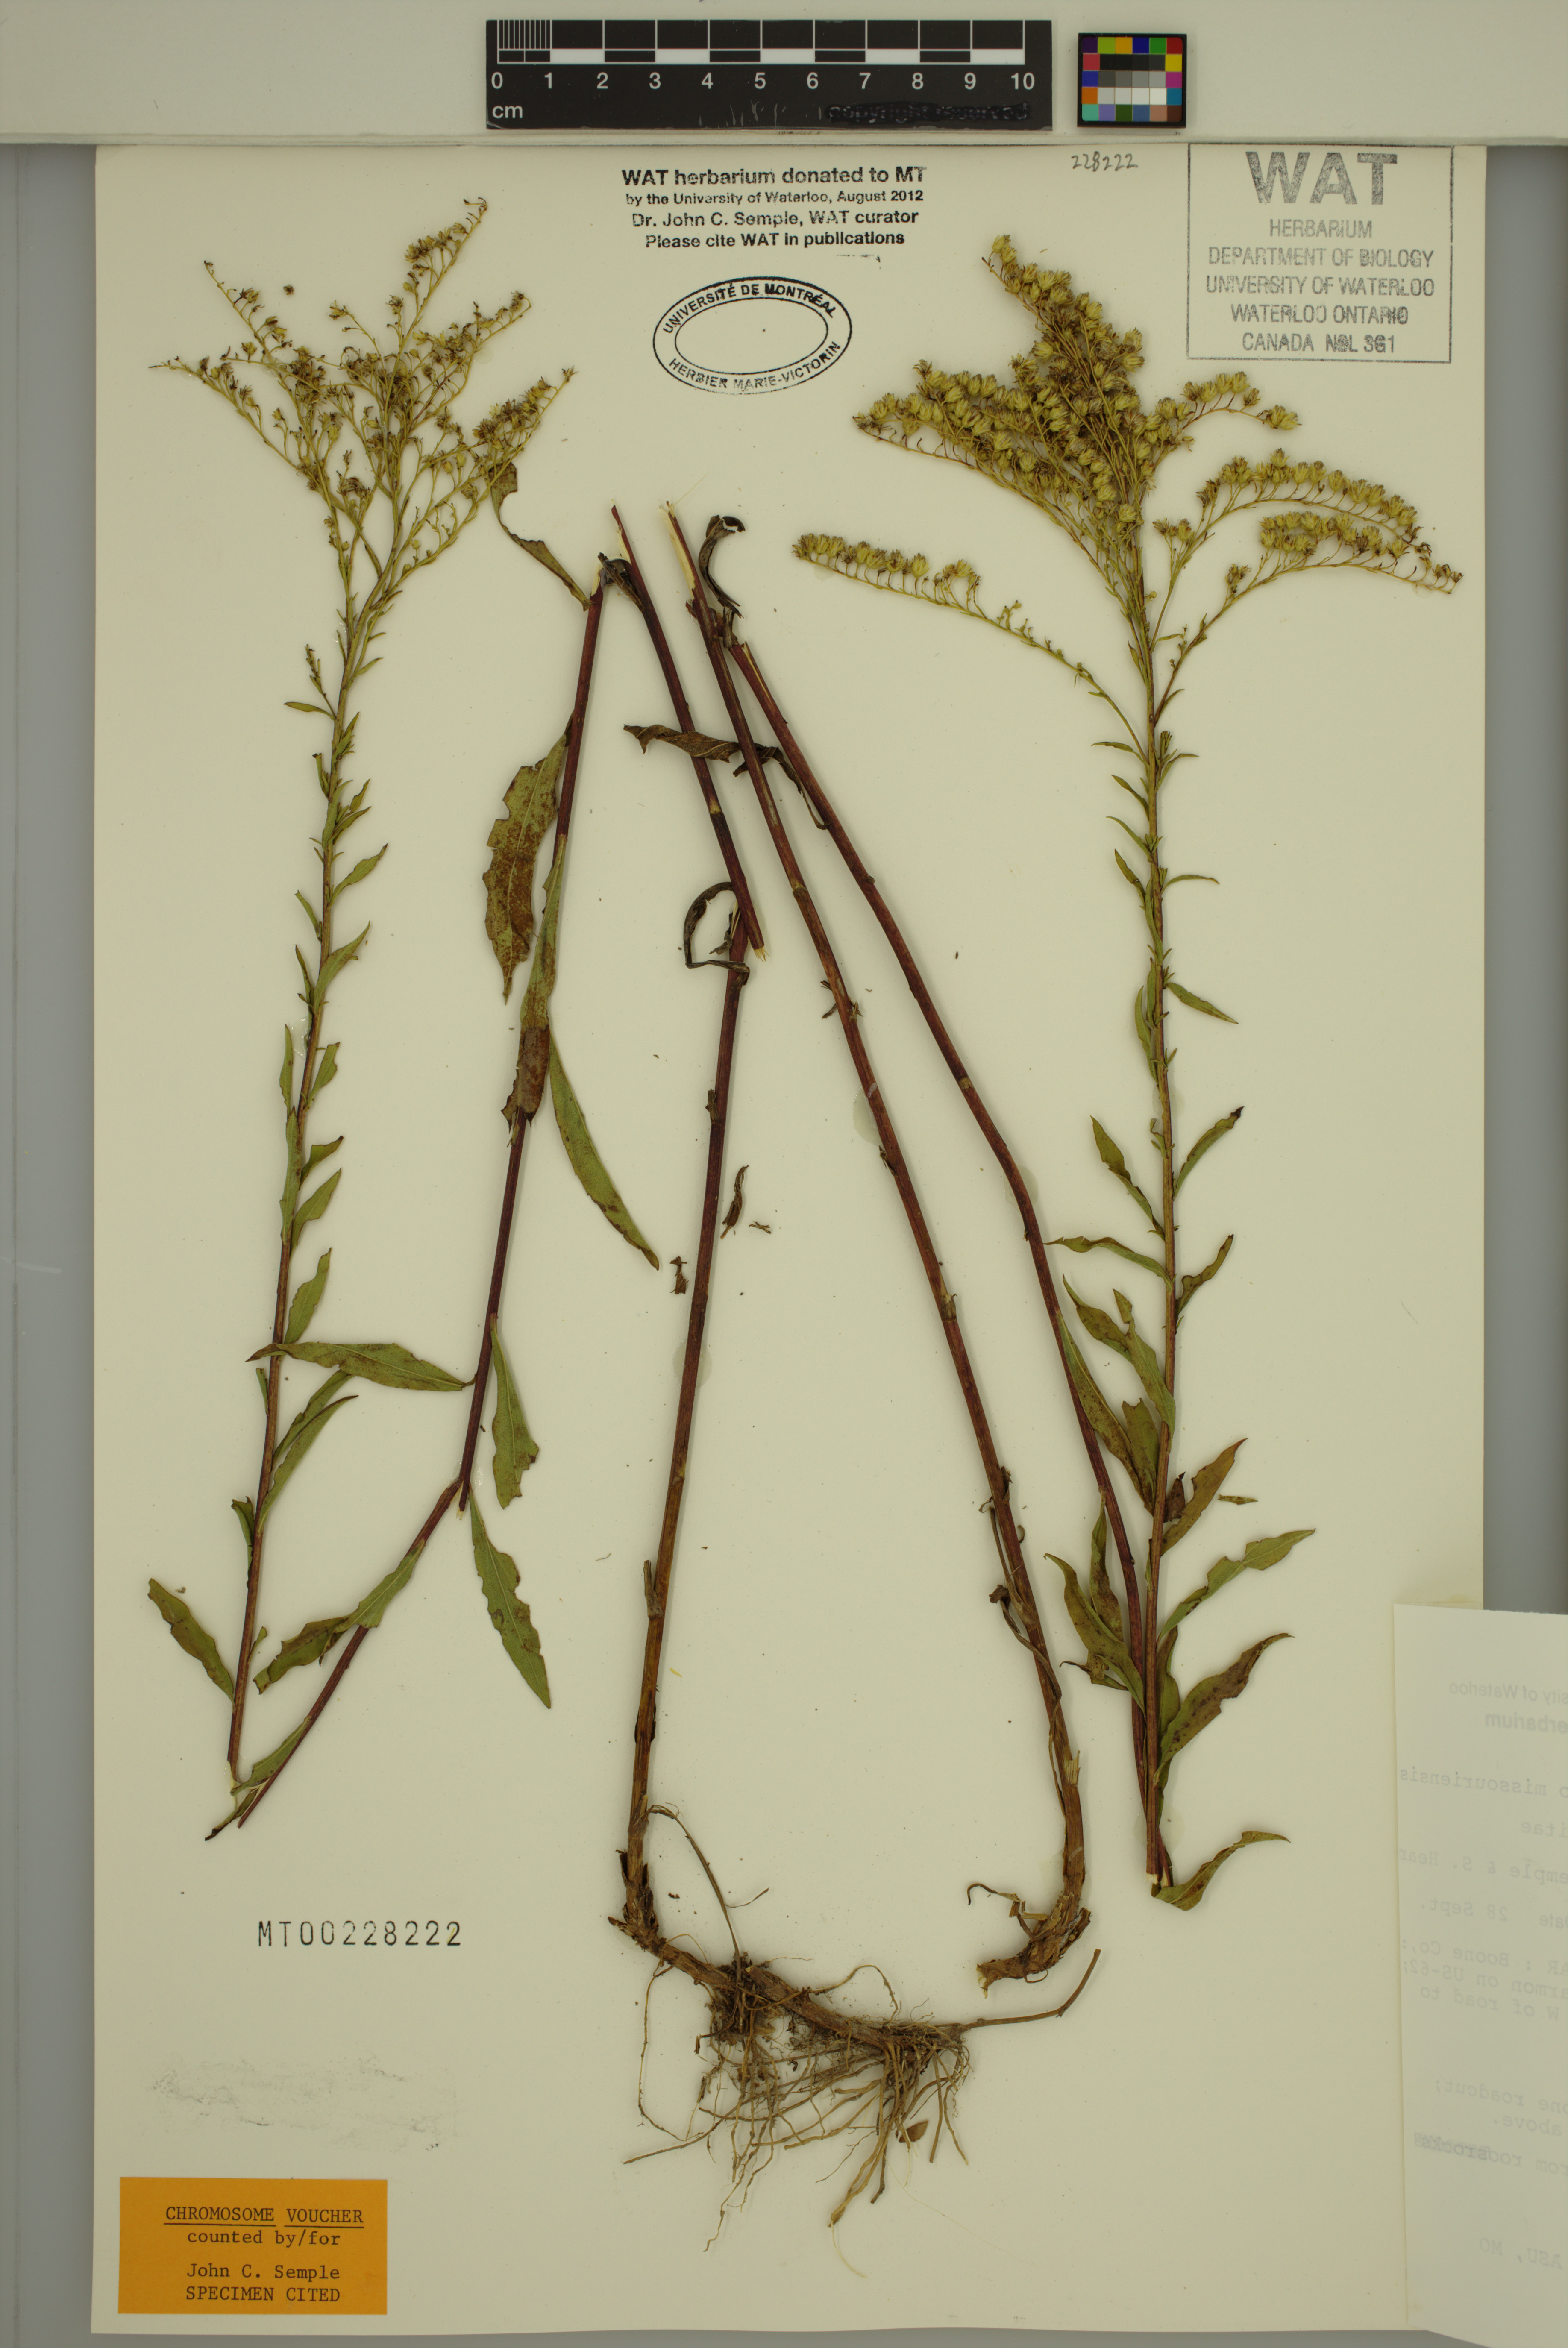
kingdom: Plantae
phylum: Tracheophyta
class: Magnoliopsida
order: Asterales
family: Asteraceae
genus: Solidago
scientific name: Solidago missouriensis
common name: Prairie goldenrod
